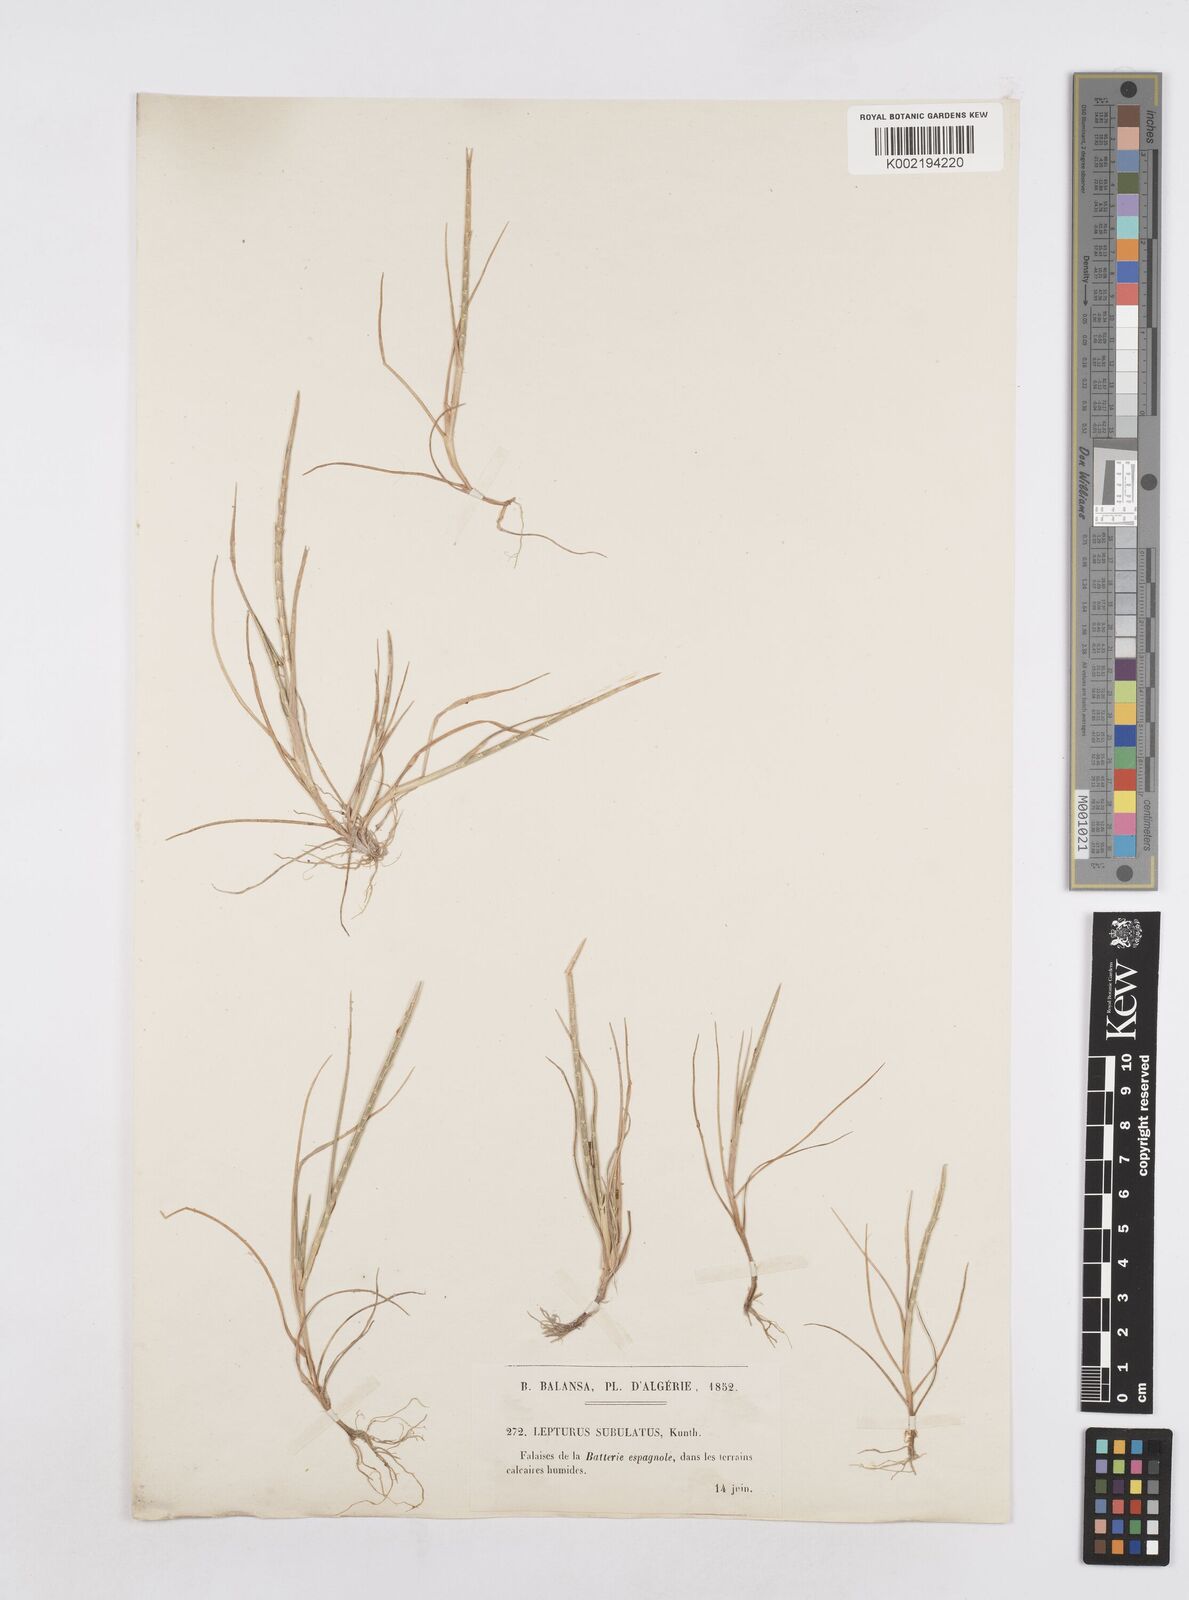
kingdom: Plantae
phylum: Tracheophyta
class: Liliopsida
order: Poales
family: Poaceae
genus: Parapholis
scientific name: Parapholis cylindrica
